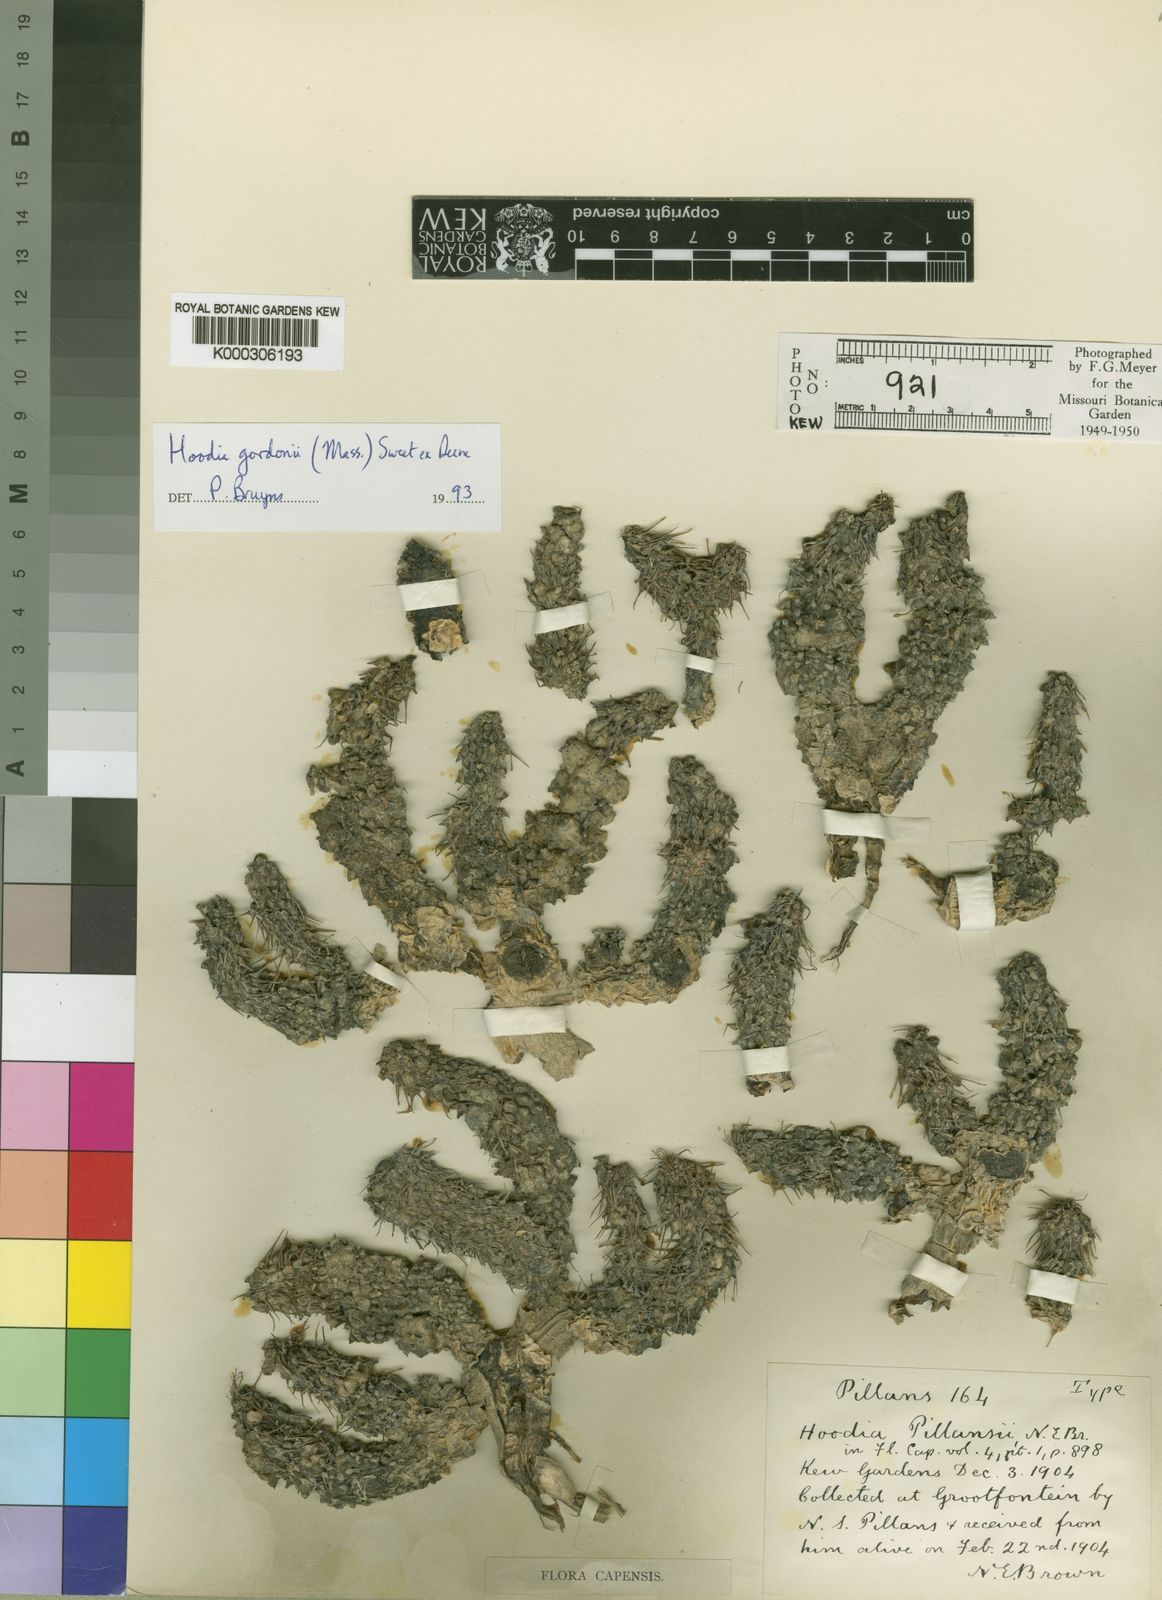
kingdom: Plantae
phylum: Tracheophyta
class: Magnoliopsida
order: Gentianales
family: Apocynaceae
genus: Ceropegia
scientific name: Ceropegia gordonii
